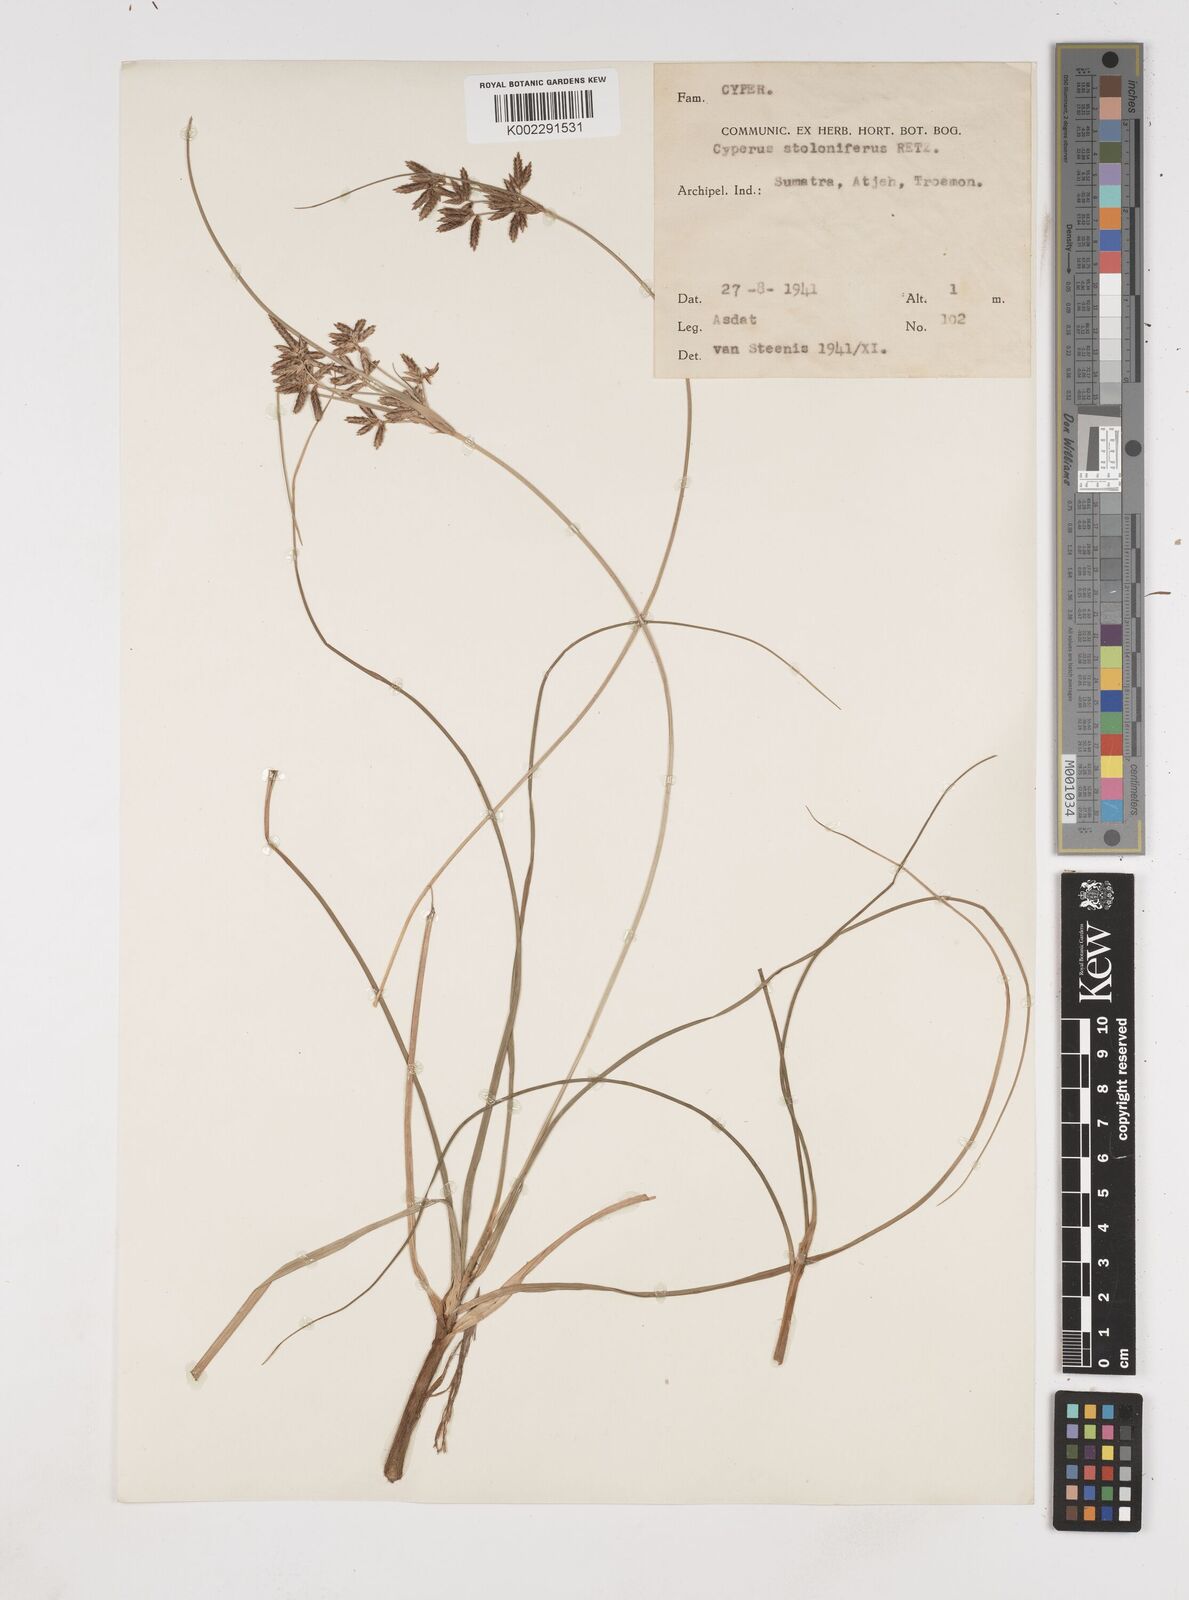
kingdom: Plantae
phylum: Tracheophyta
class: Liliopsida
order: Poales
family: Cyperaceae
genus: Cyperus
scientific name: Cyperus bulbosus
